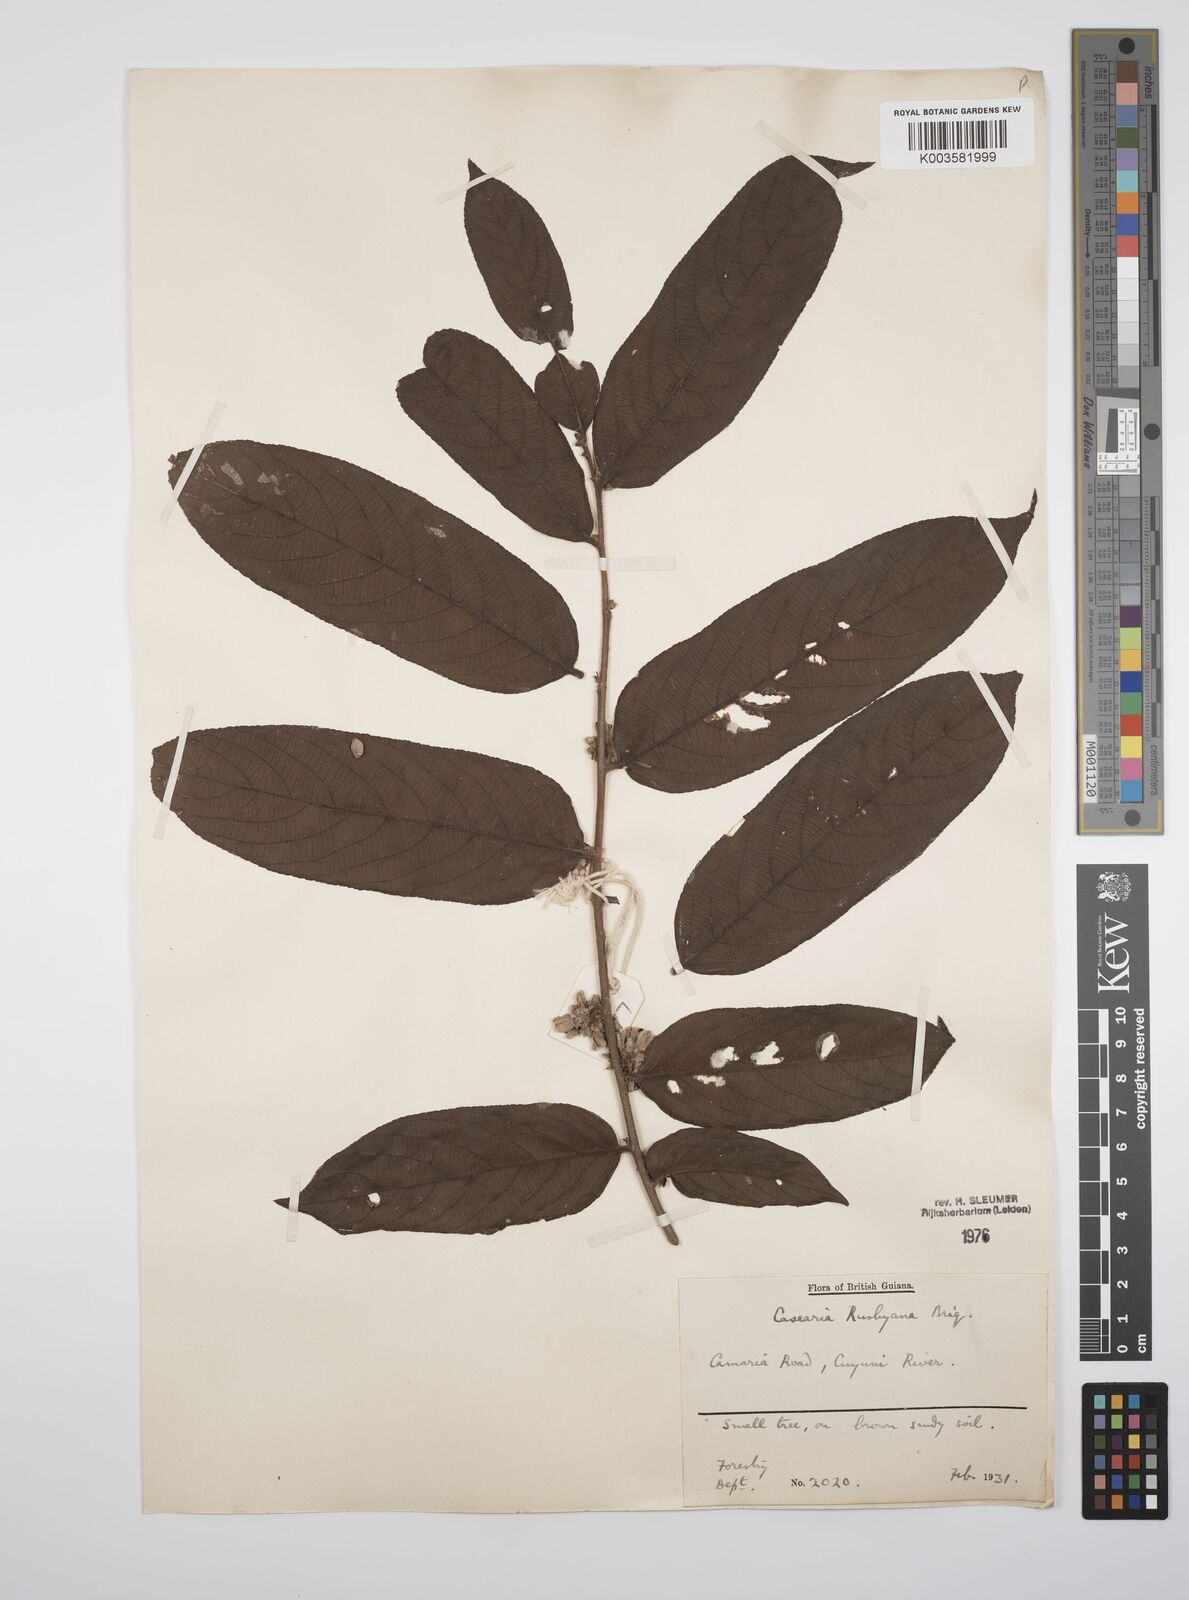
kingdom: Plantae
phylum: Tracheophyta
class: Magnoliopsida
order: Malpighiales
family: Salicaceae
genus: Casearia
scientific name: Casearia rusbyana
